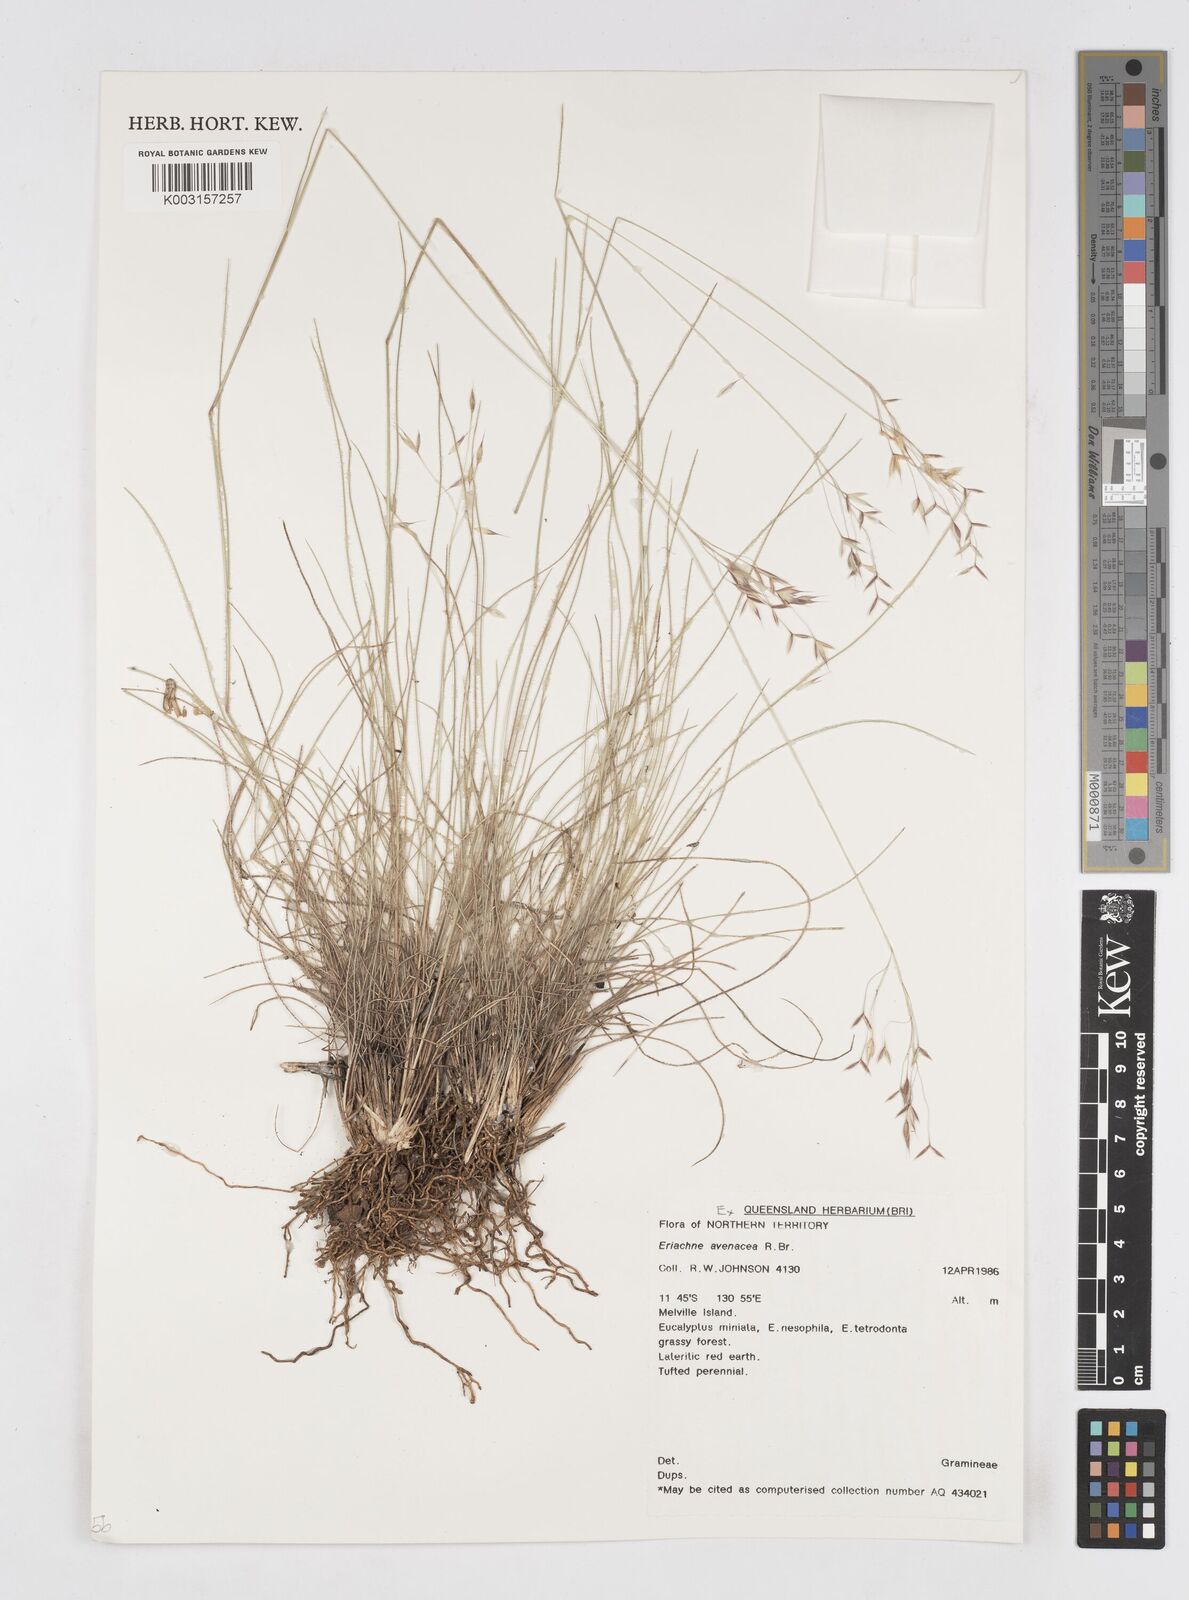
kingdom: Plantae
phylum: Tracheophyta
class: Liliopsida
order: Poales
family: Poaceae
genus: Eriachne
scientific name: Eriachne avenacea
